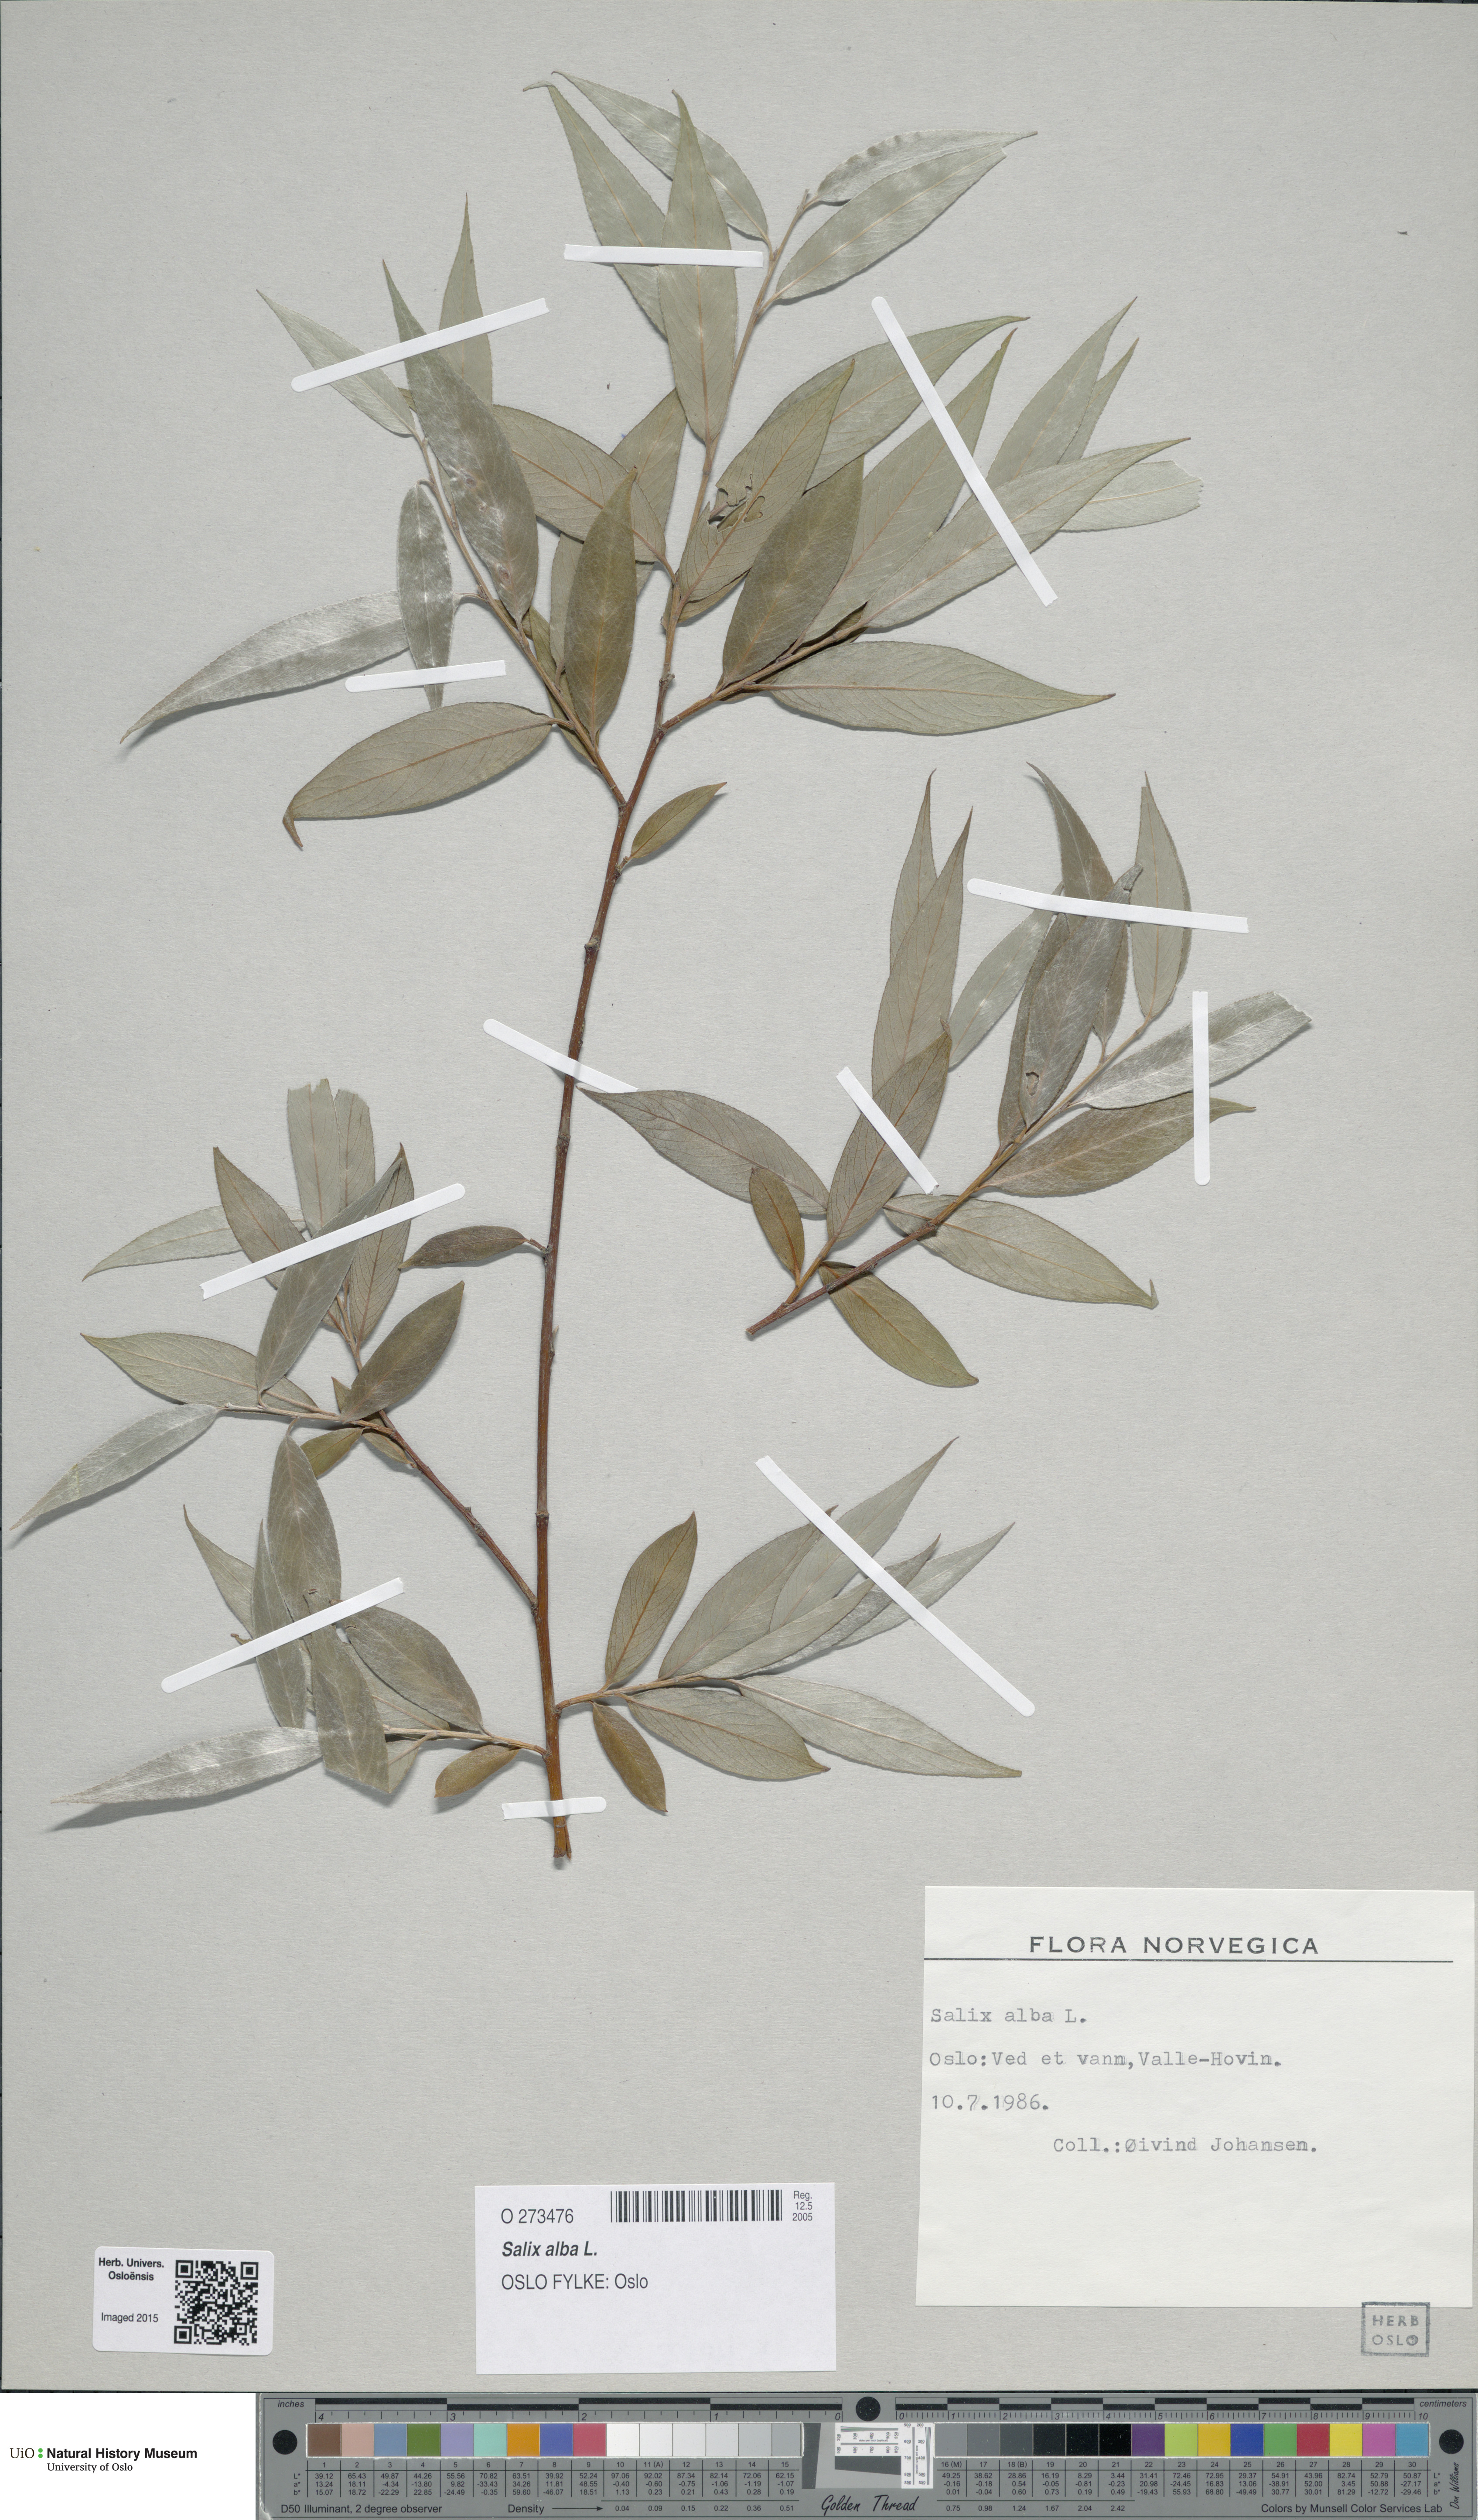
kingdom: Plantae
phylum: Tracheophyta
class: Magnoliopsida
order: Malpighiales
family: Salicaceae
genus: Salix
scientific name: Salix alba
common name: White willow
